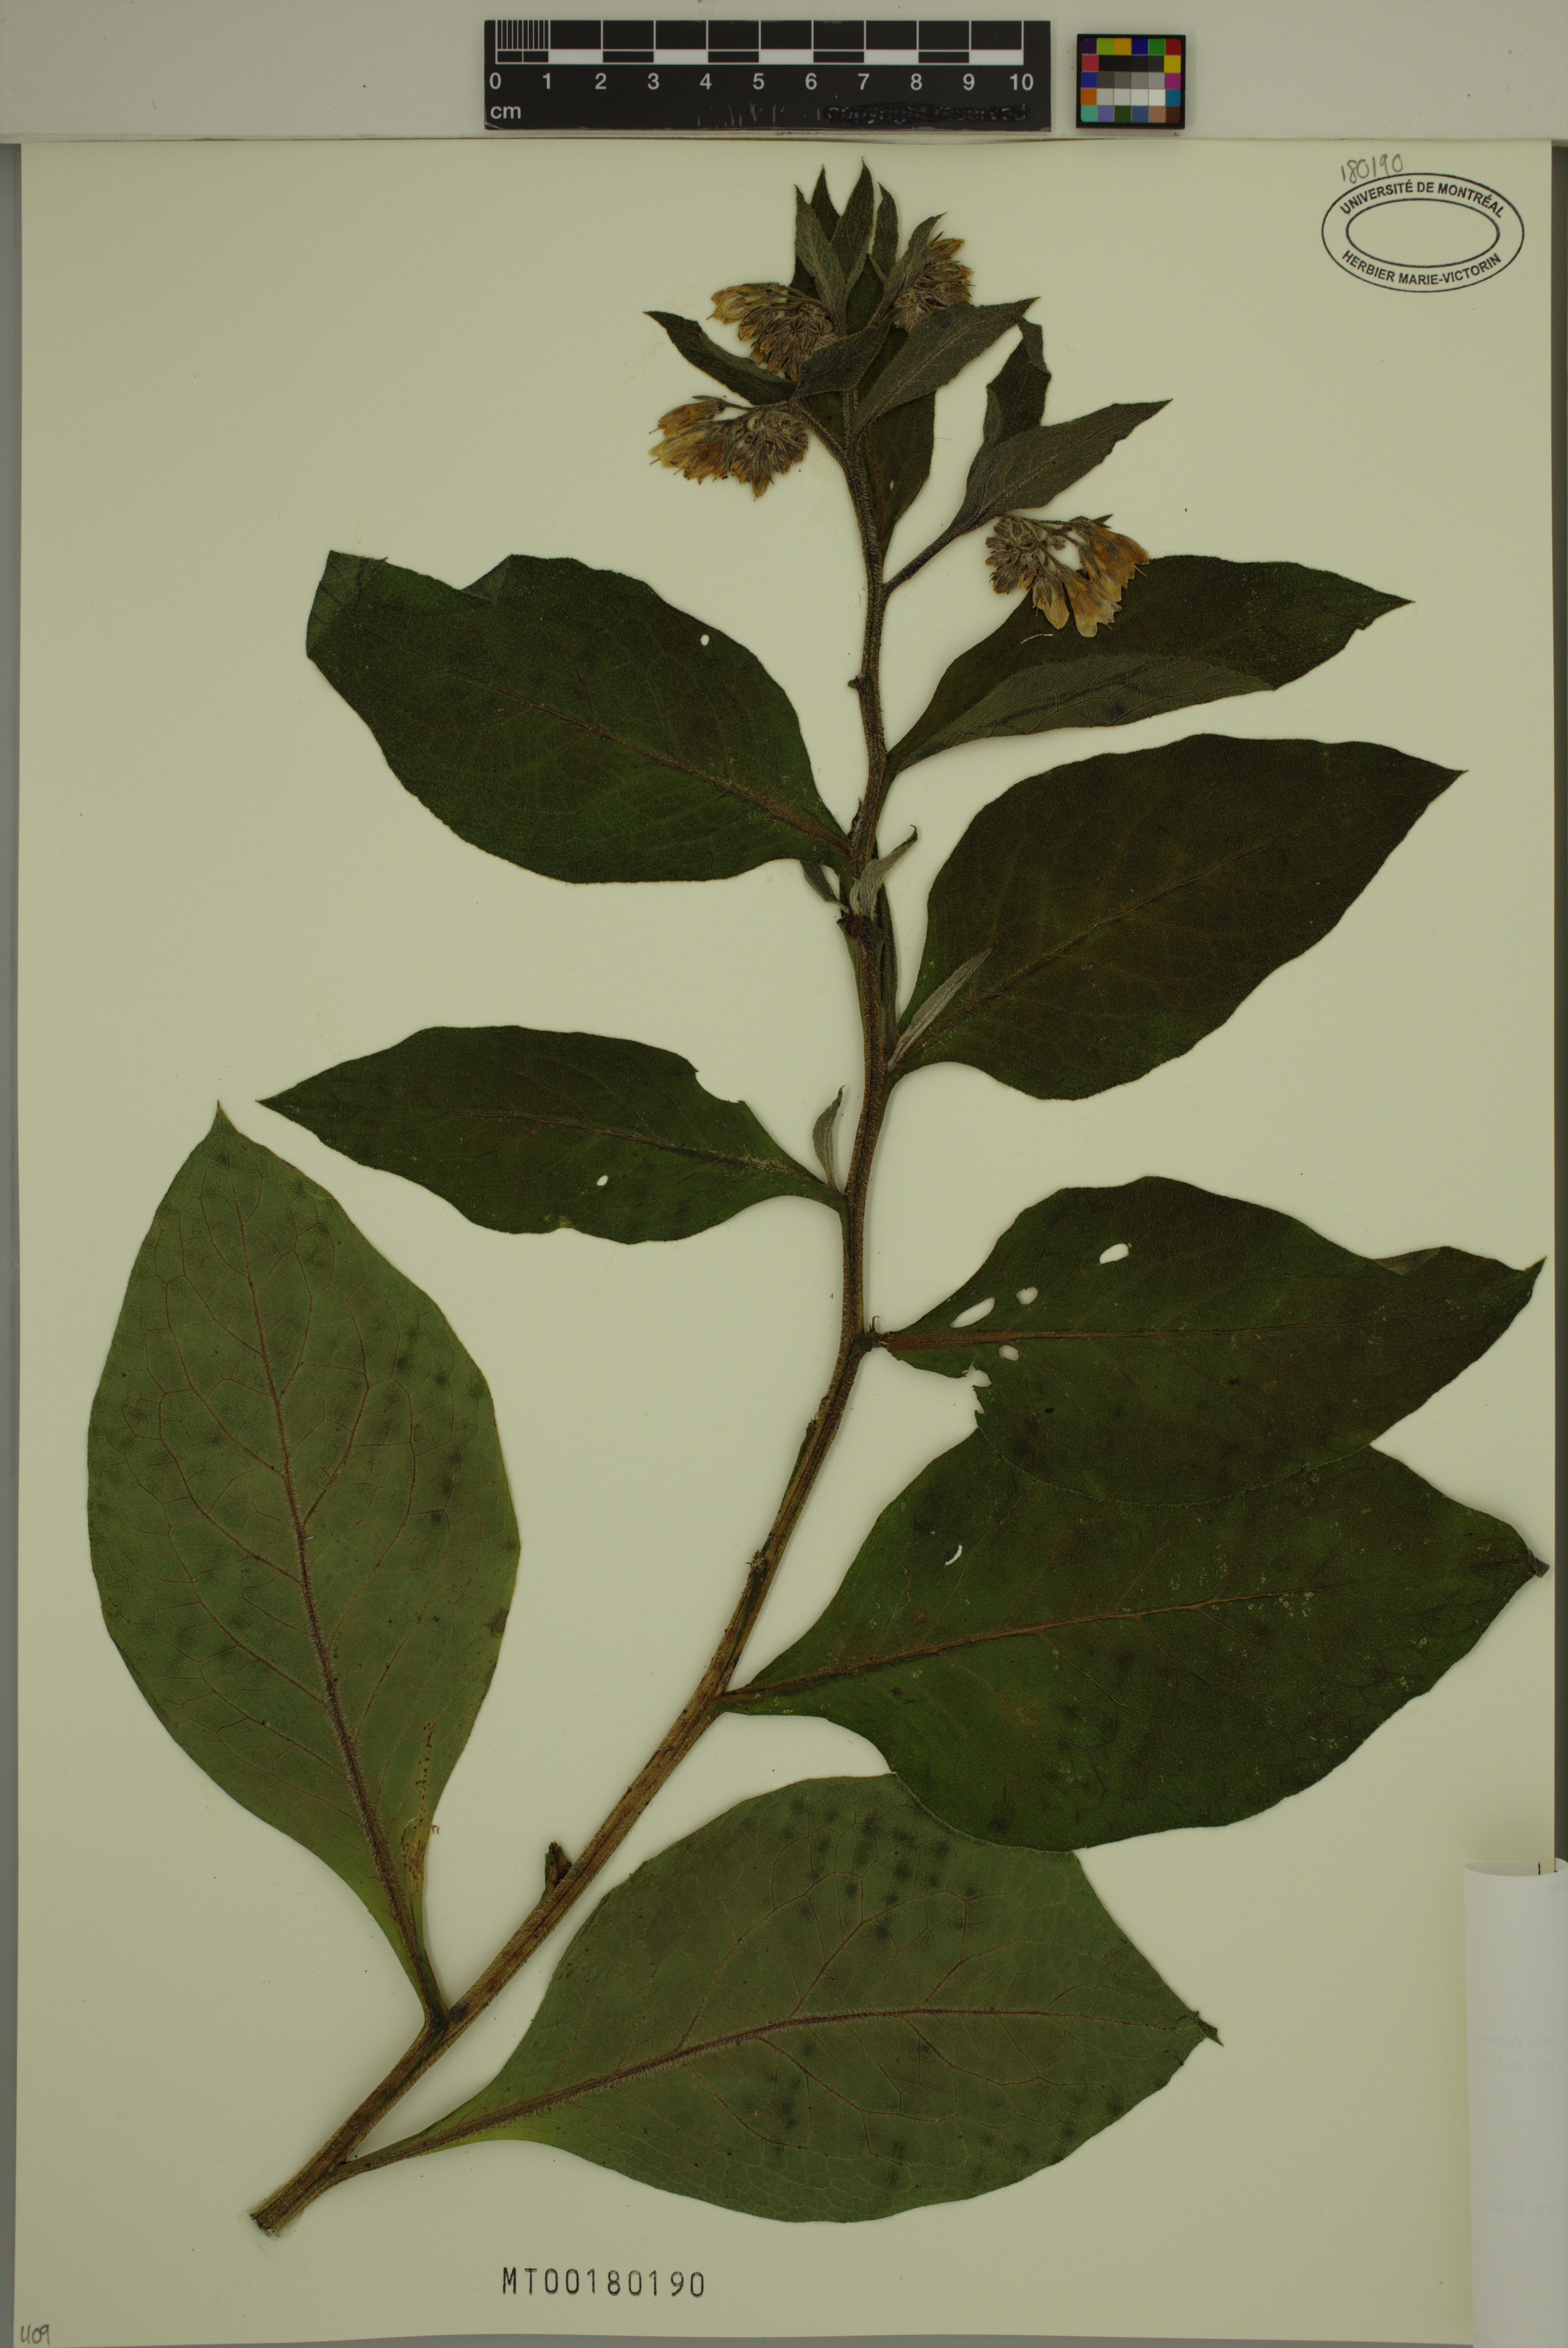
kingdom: Plantae
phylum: Tracheophyta
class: Magnoliopsida
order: Boraginales
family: Boraginaceae
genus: Symphytum
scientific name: Symphytum officinale
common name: Common comfrey
